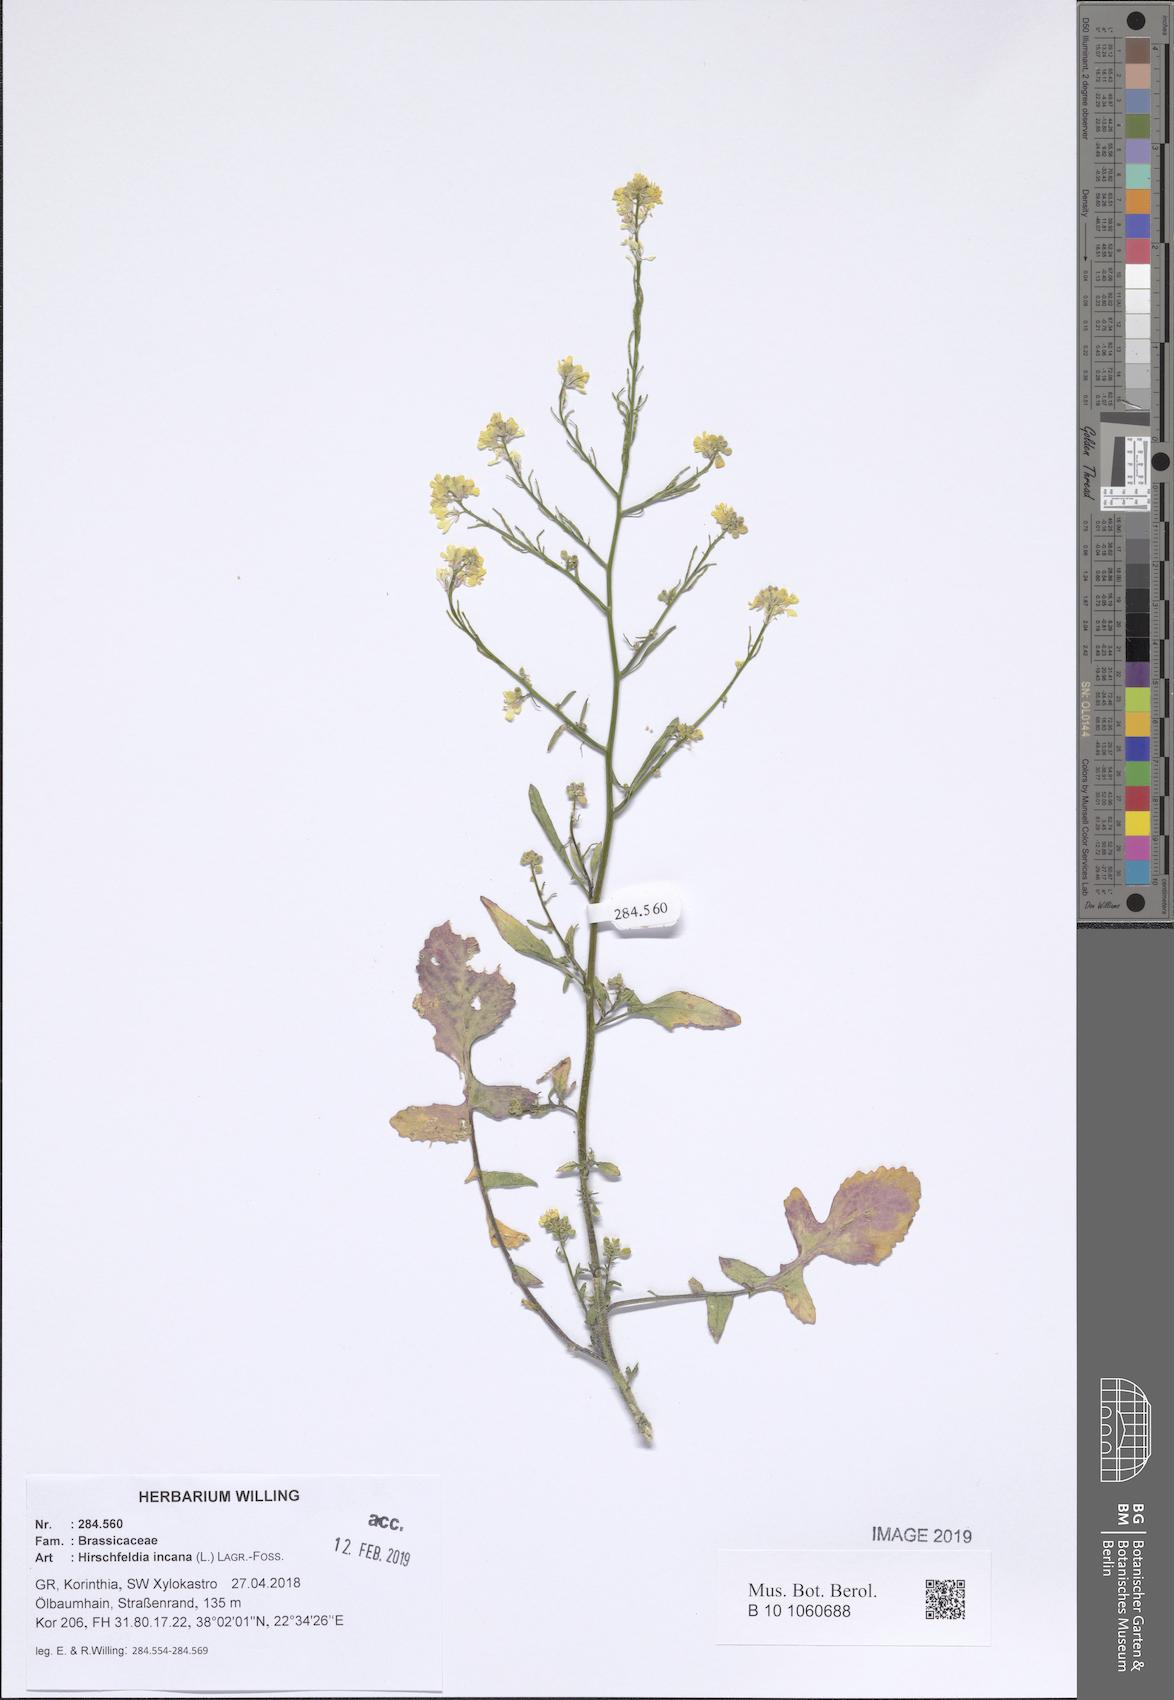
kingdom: Plantae
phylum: Tracheophyta
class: Magnoliopsida
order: Brassicales
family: Brassicaceae
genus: Hirschfeldia
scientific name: Hirschfeldia incana
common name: Hoary mustard
